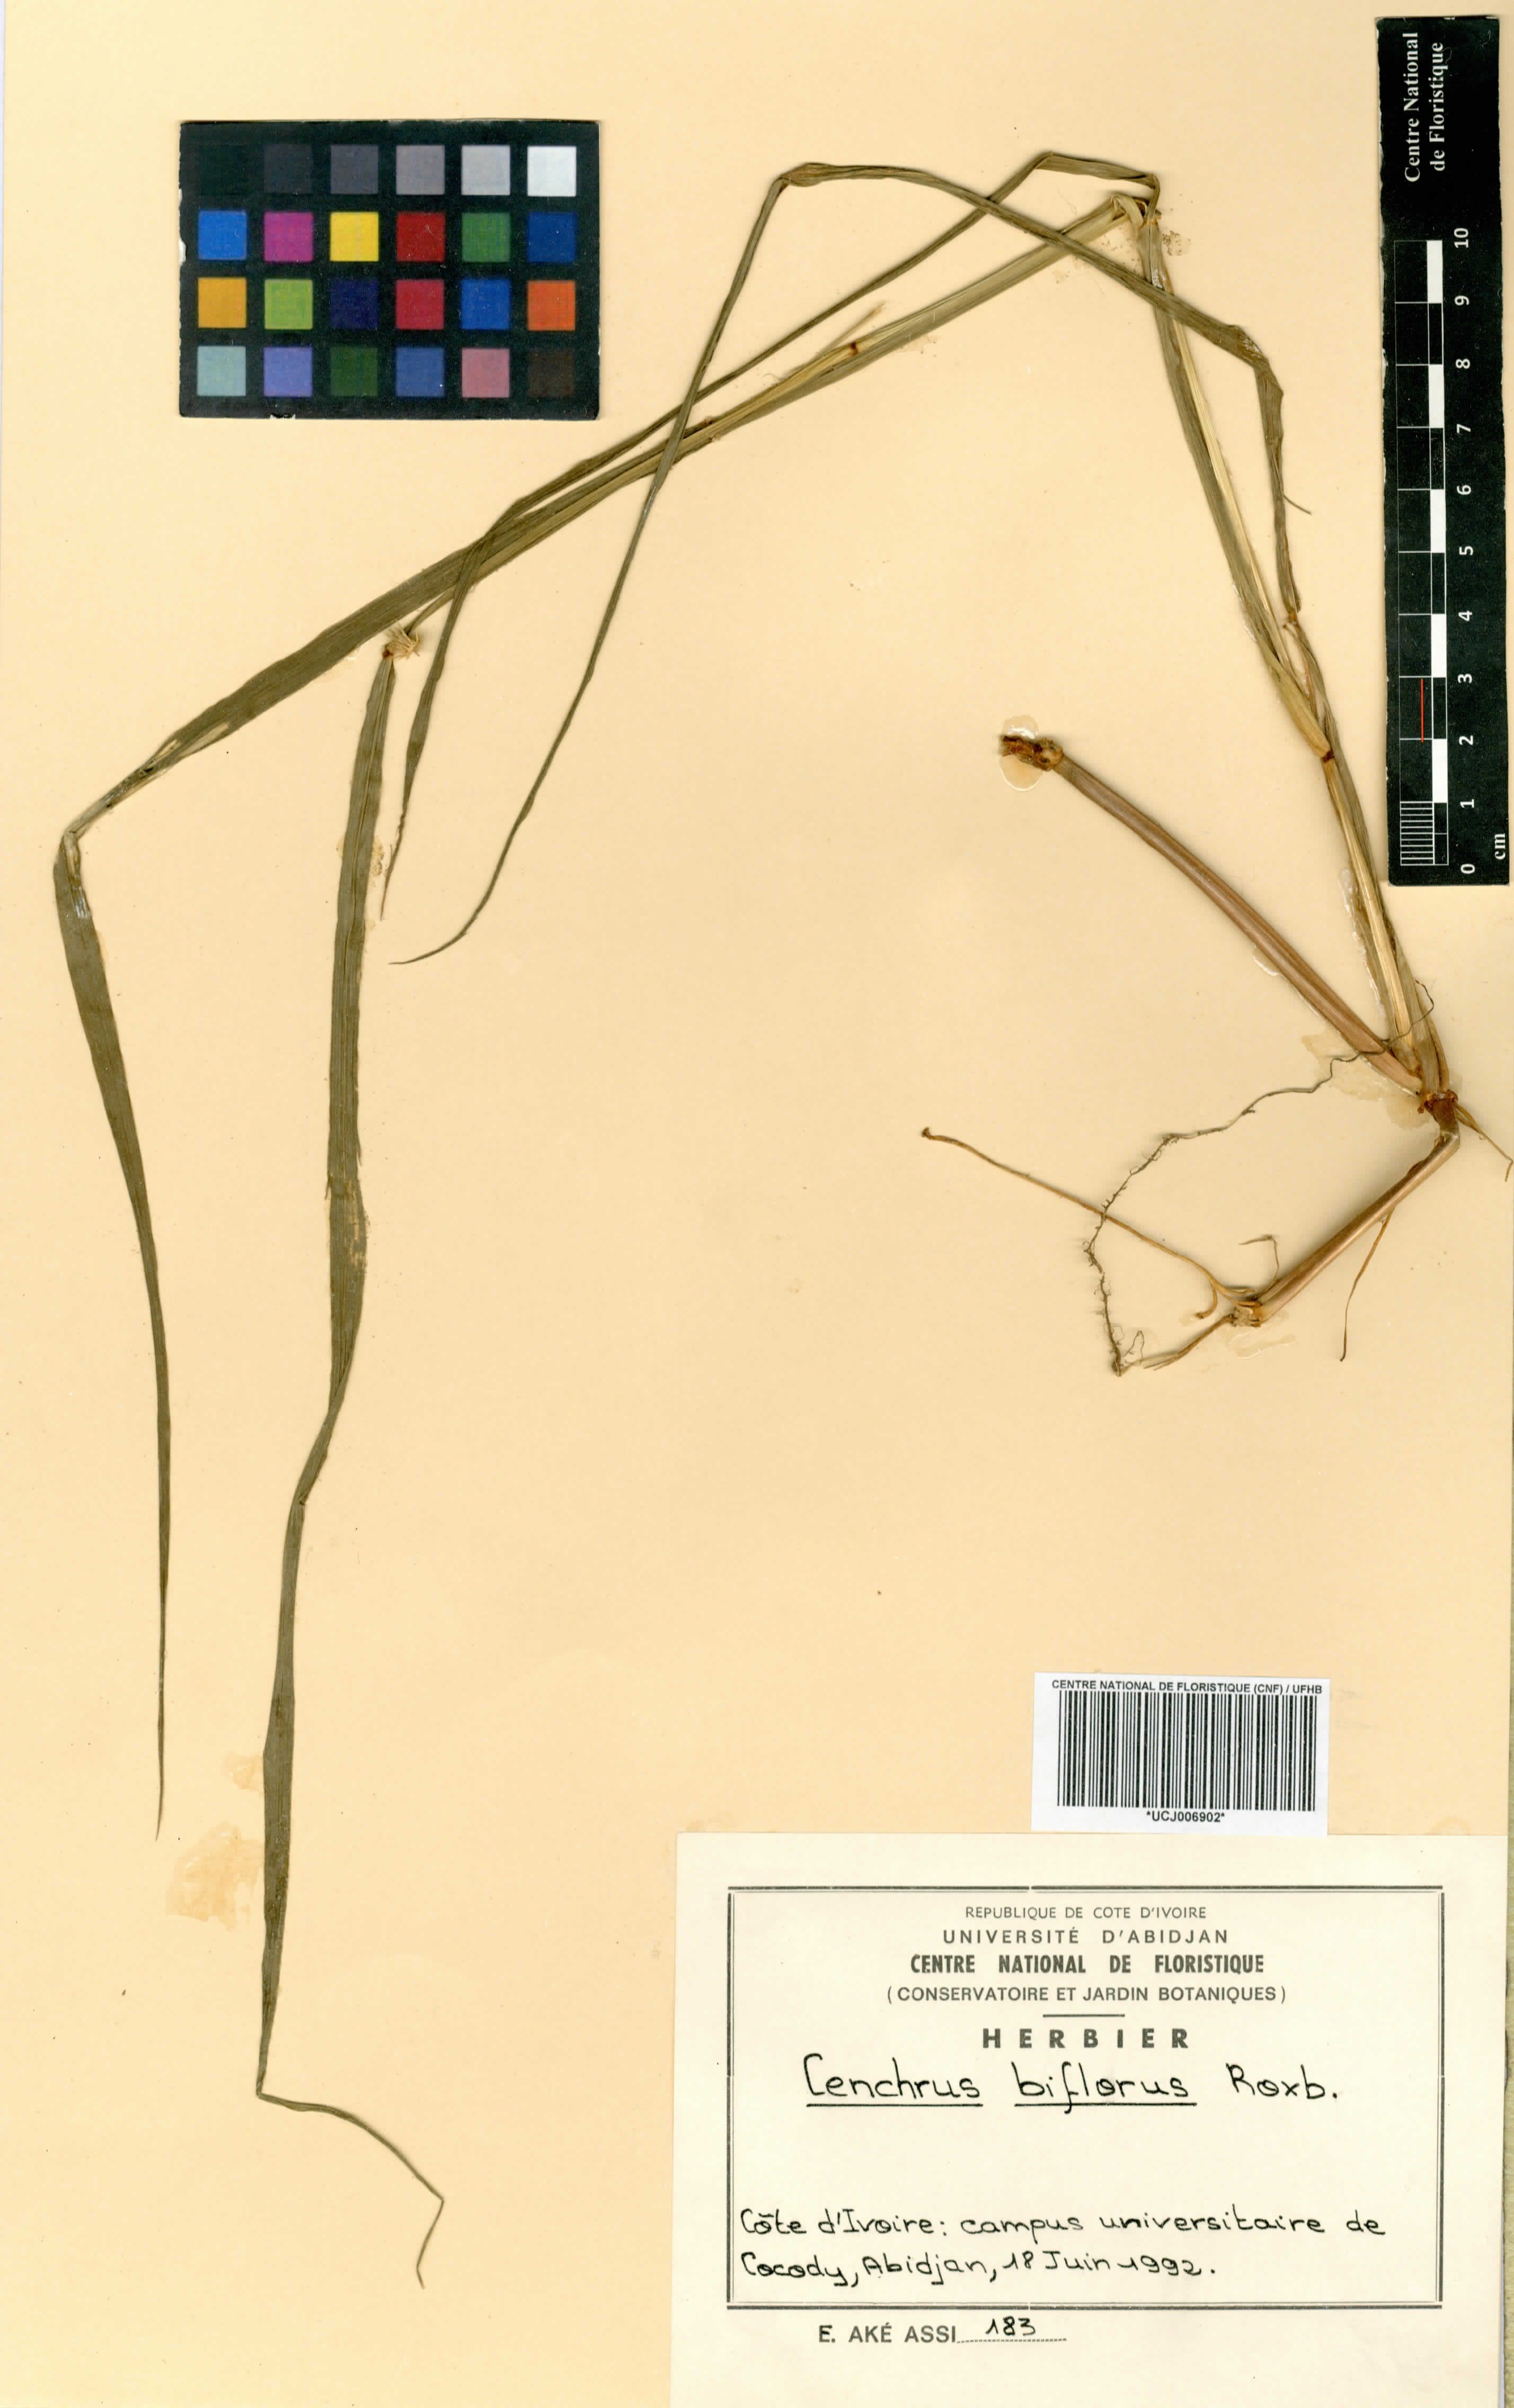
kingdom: Plantae
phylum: Tracheophyta
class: Liliopsida
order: Poales
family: Poaceae
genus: Cenchrus
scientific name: Cenchrus biflorus
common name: Indian sandbur
